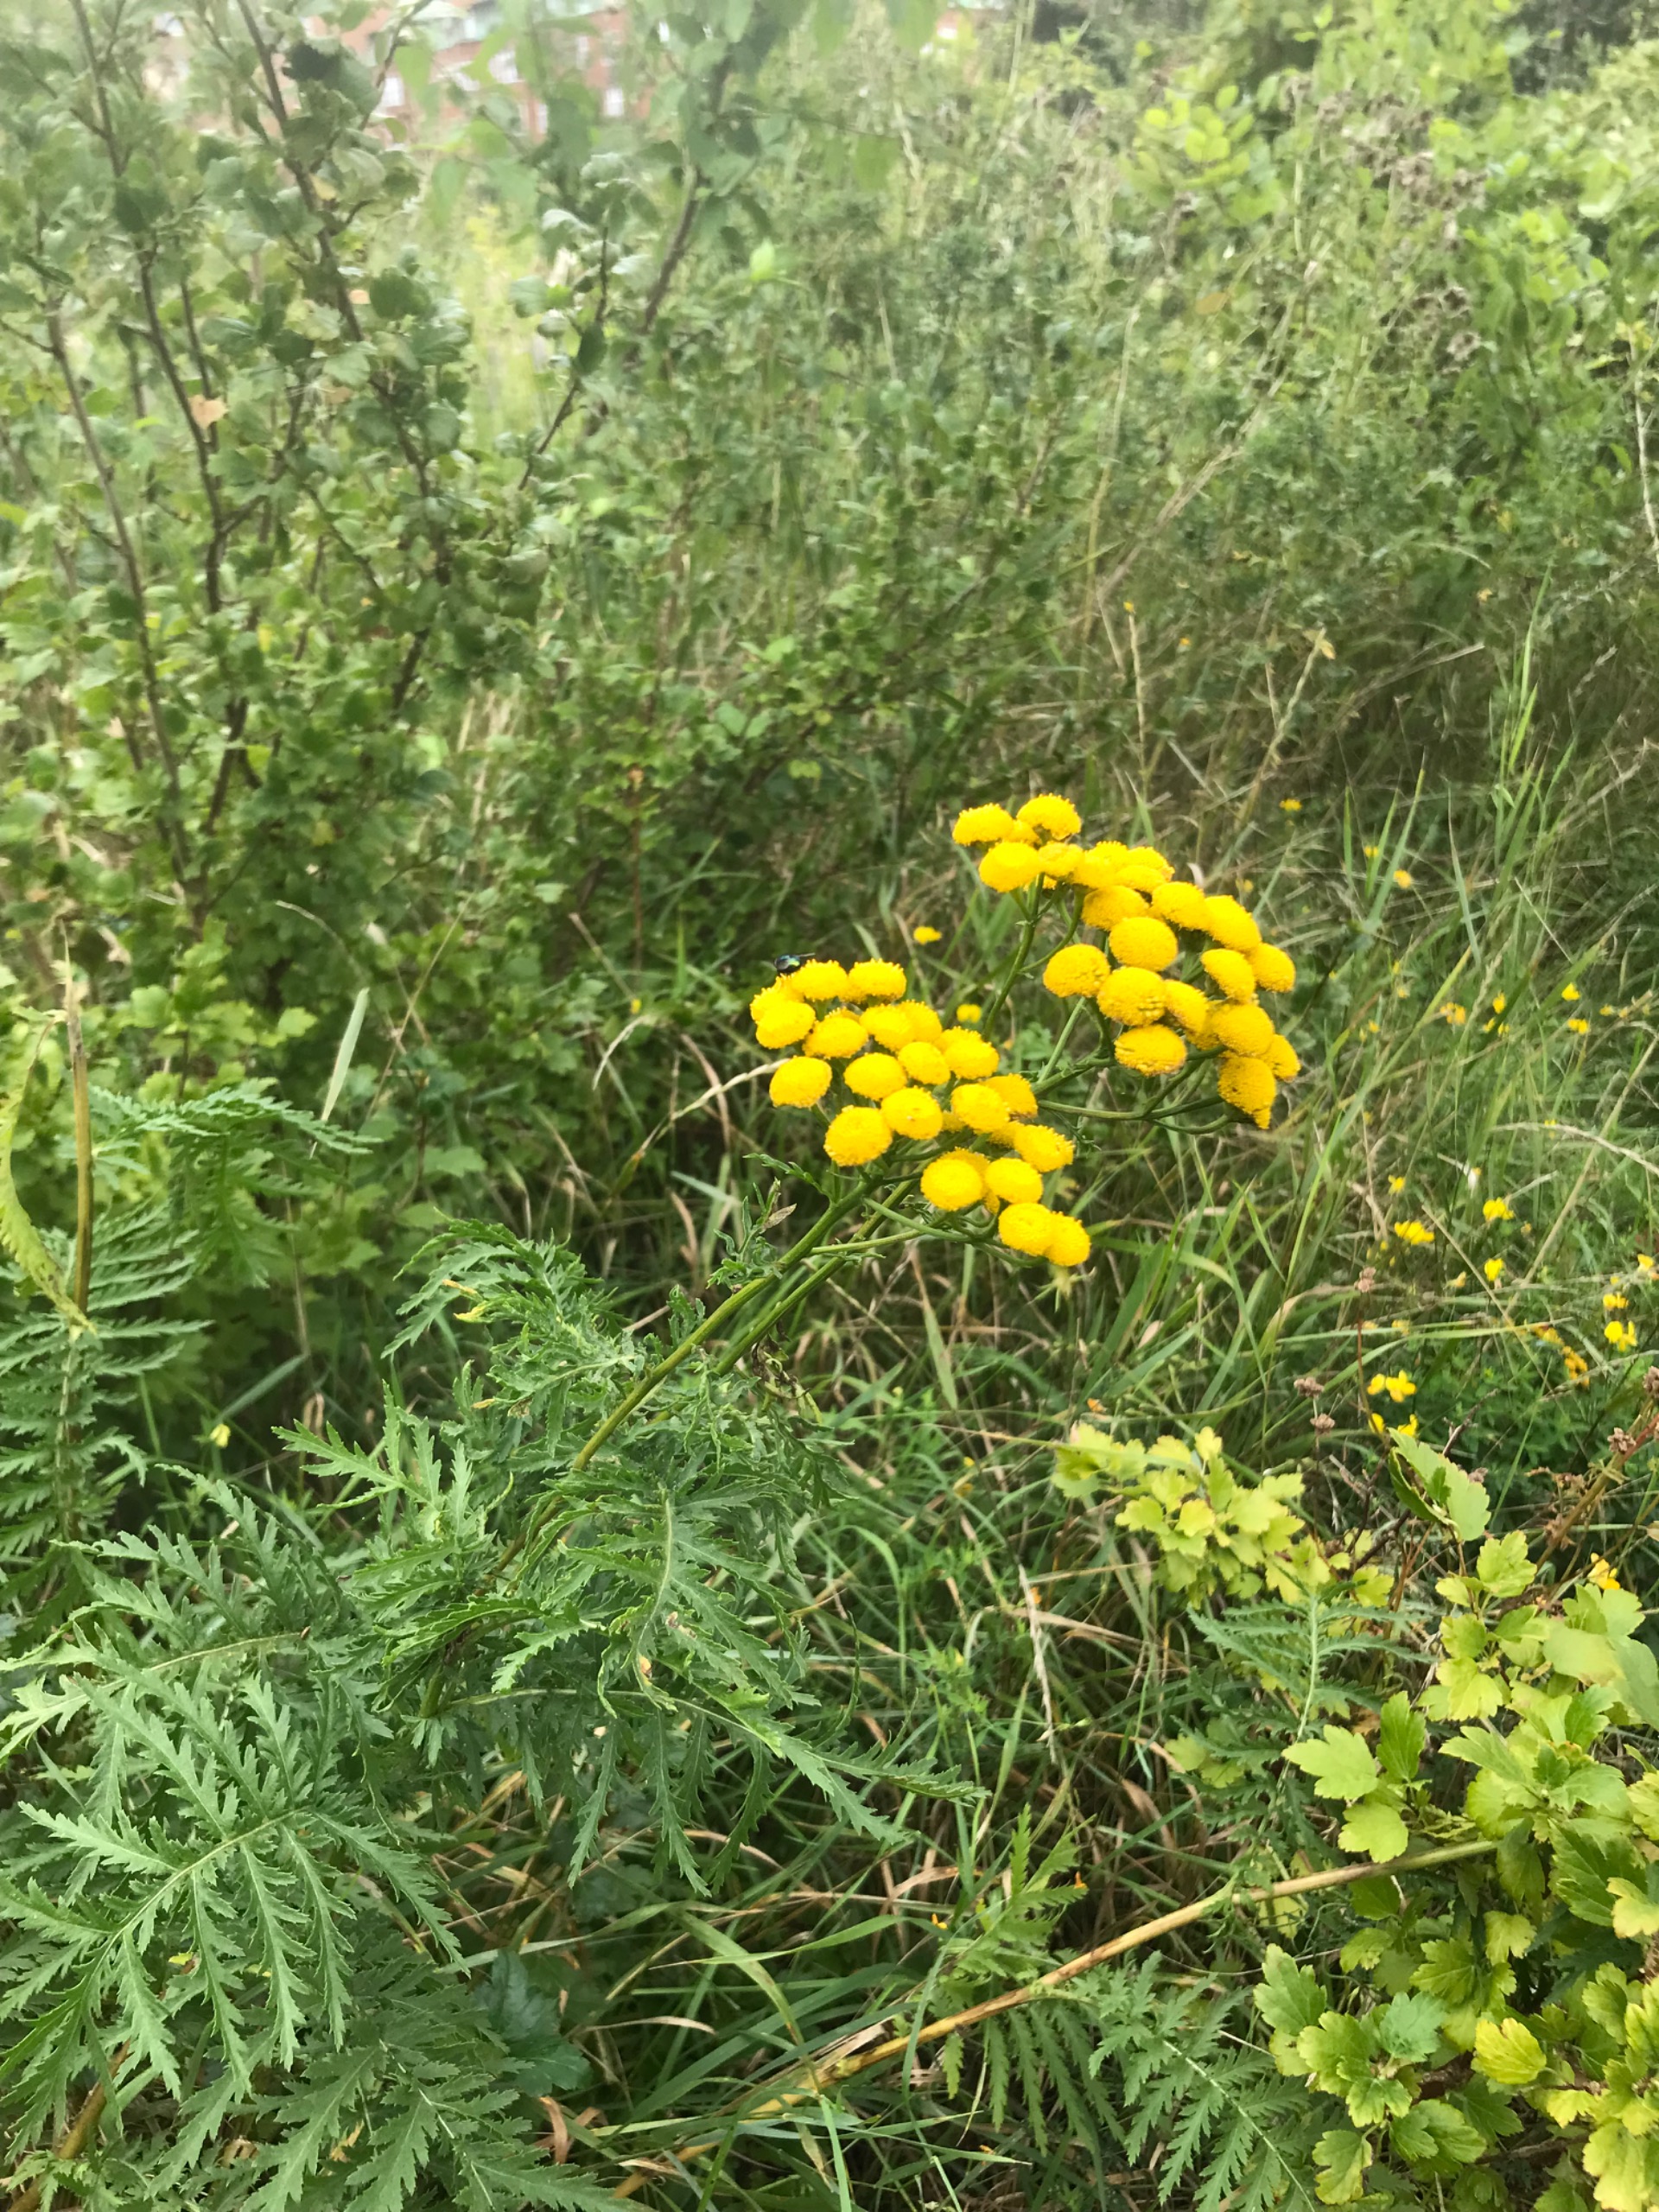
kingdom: Plantae
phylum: Tracheophyta
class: Magnoliopsida
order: Asterales
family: Asteraceae
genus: Tanacetum
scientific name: Tanacetum vulgare
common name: Rejnfan
